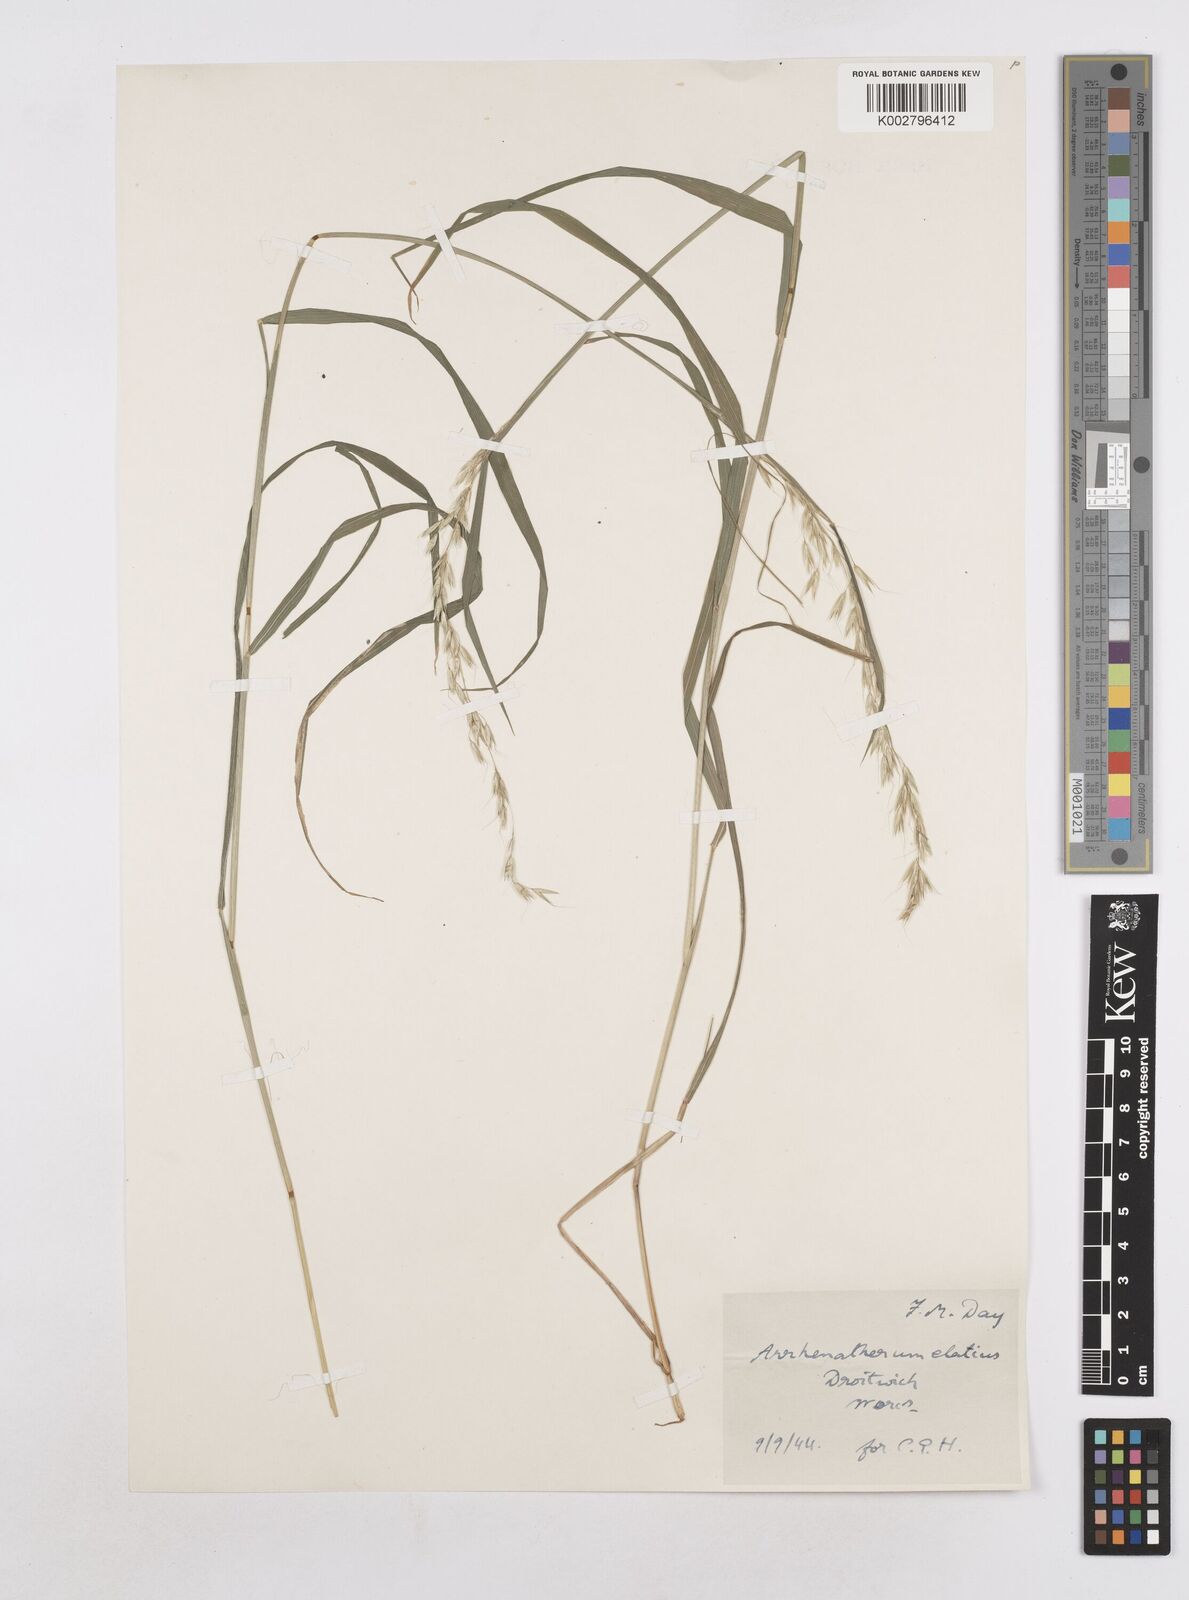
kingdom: Plantae
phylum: Tracheophyta
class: Liliopsida
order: Poales
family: Poaceae
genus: Arrhenatherum
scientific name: Arrhenatherum elatius
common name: Tall oatgrass
